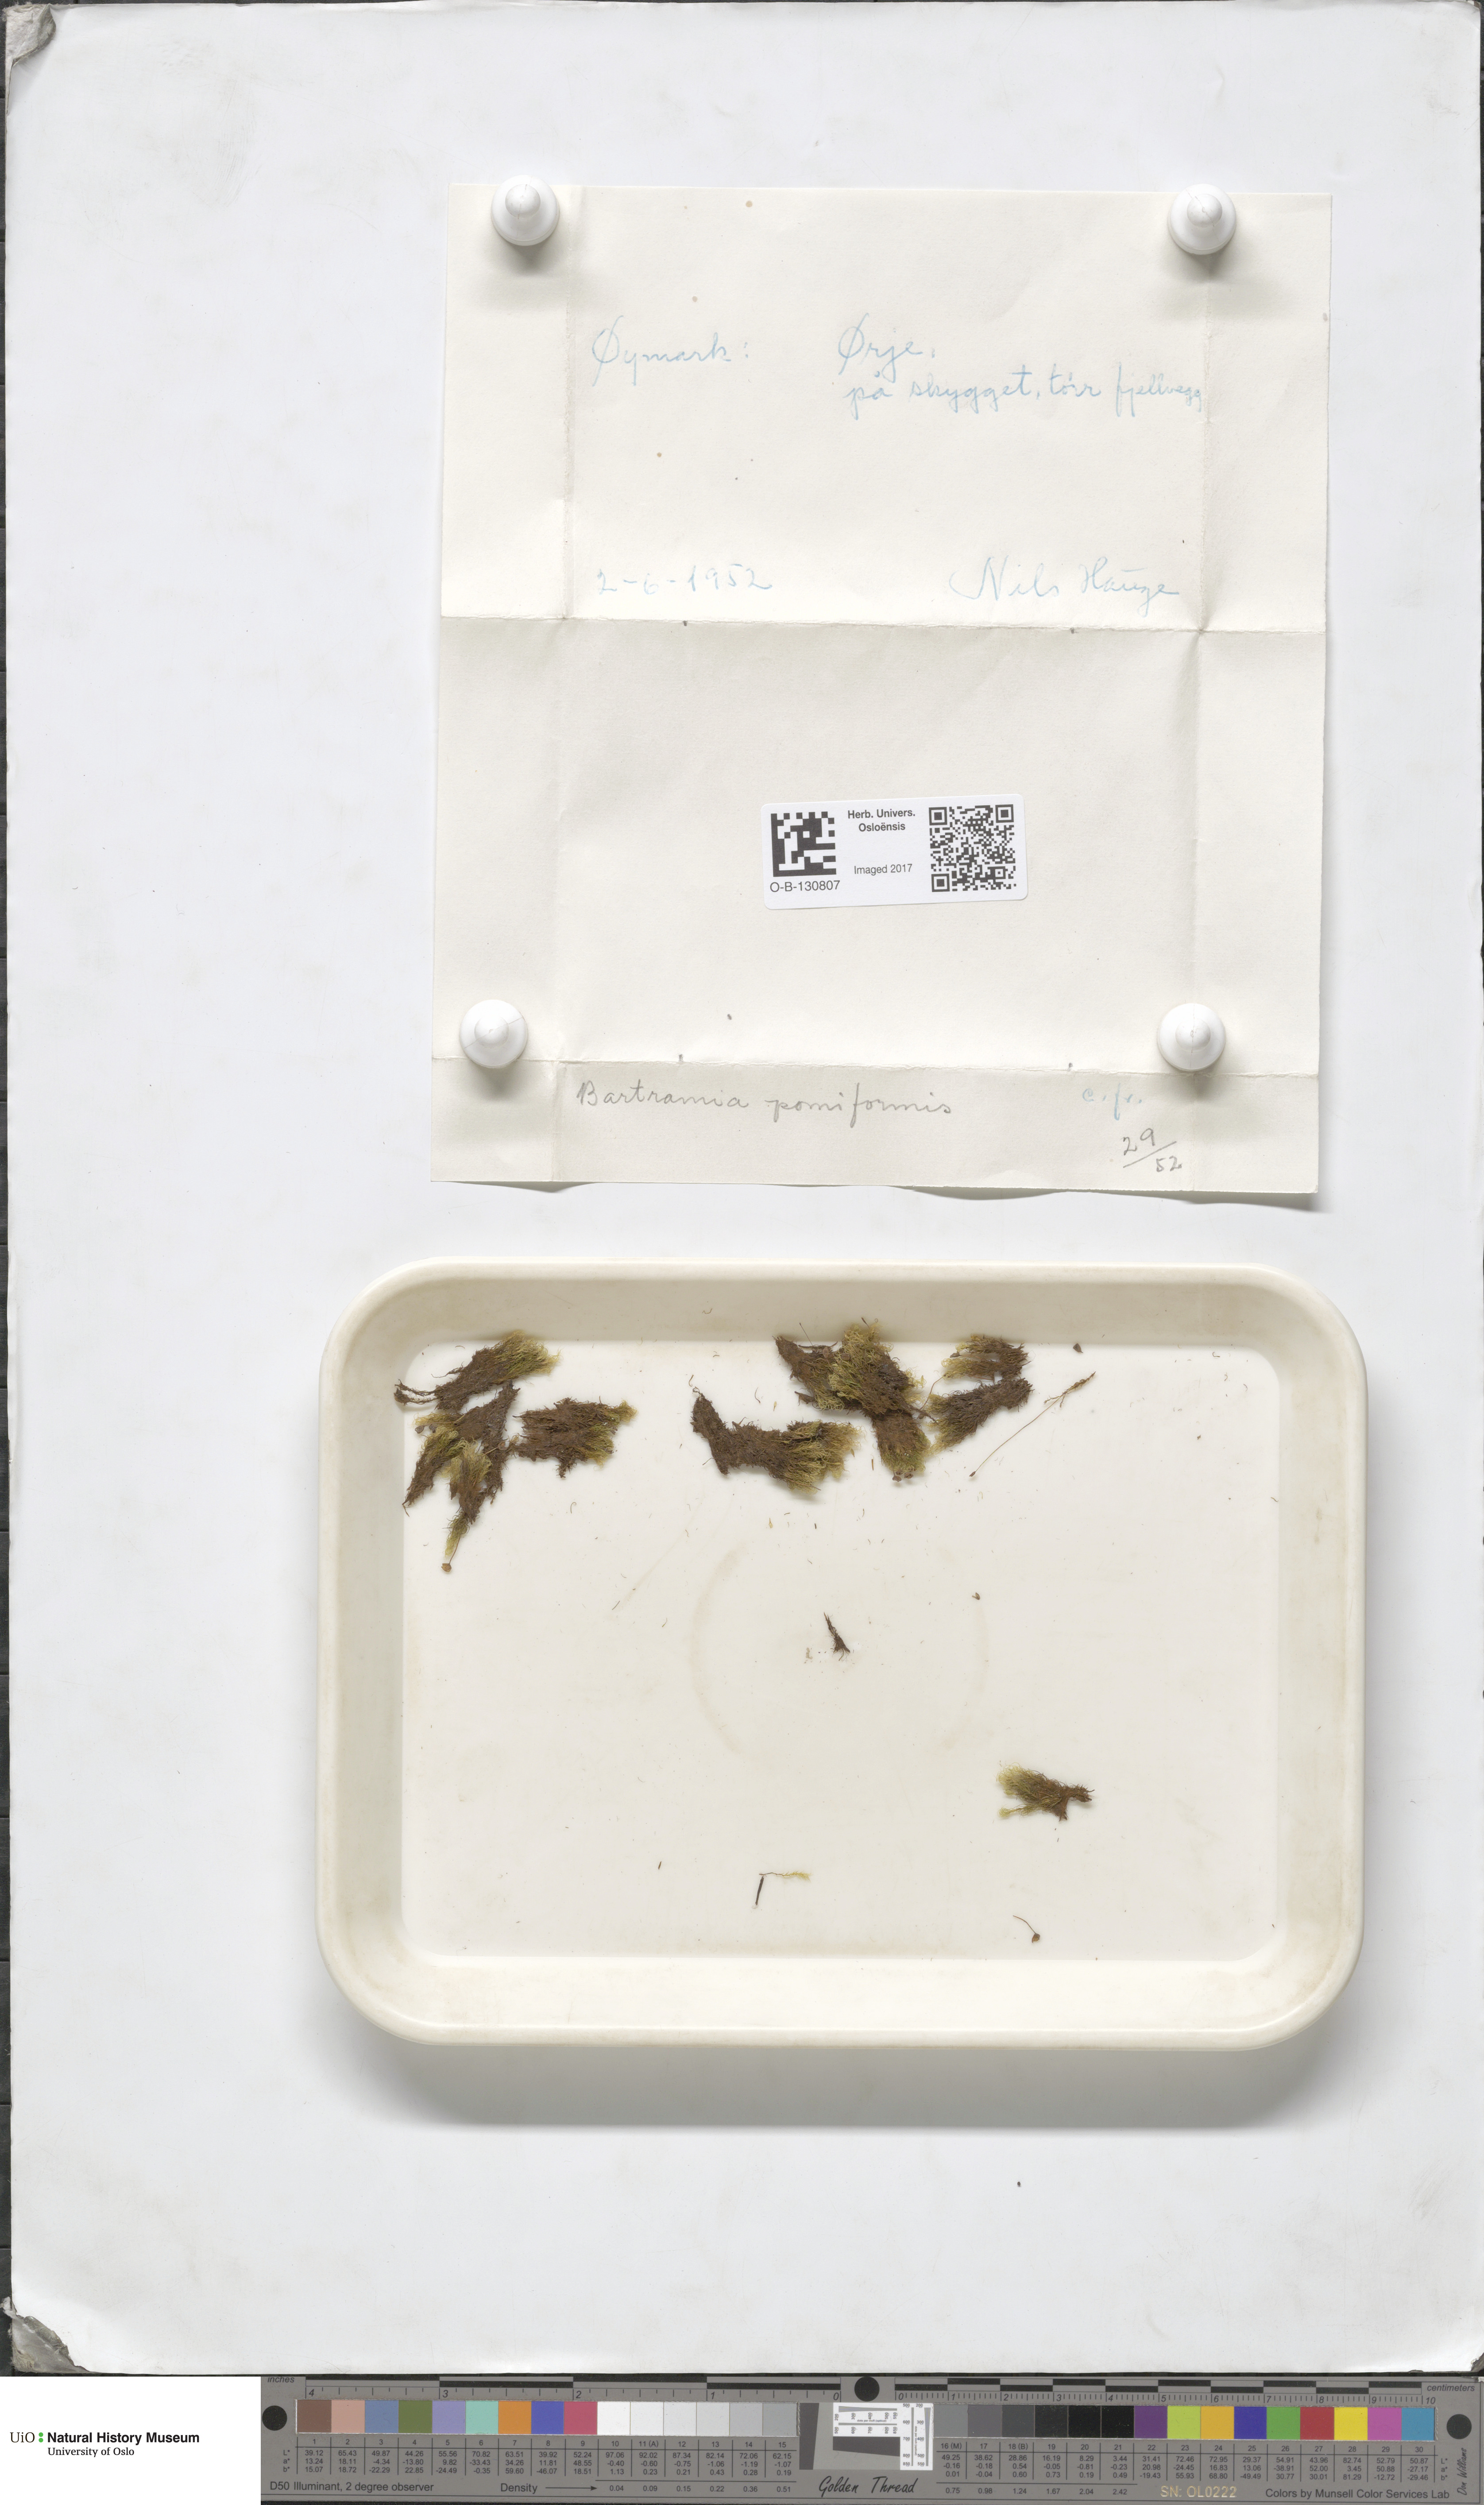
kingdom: Plantae
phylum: Bryophyta
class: Bryopsida
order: Bartramiales
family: Bartramiaceae
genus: Bartramia
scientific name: Bartramia pomiformis
